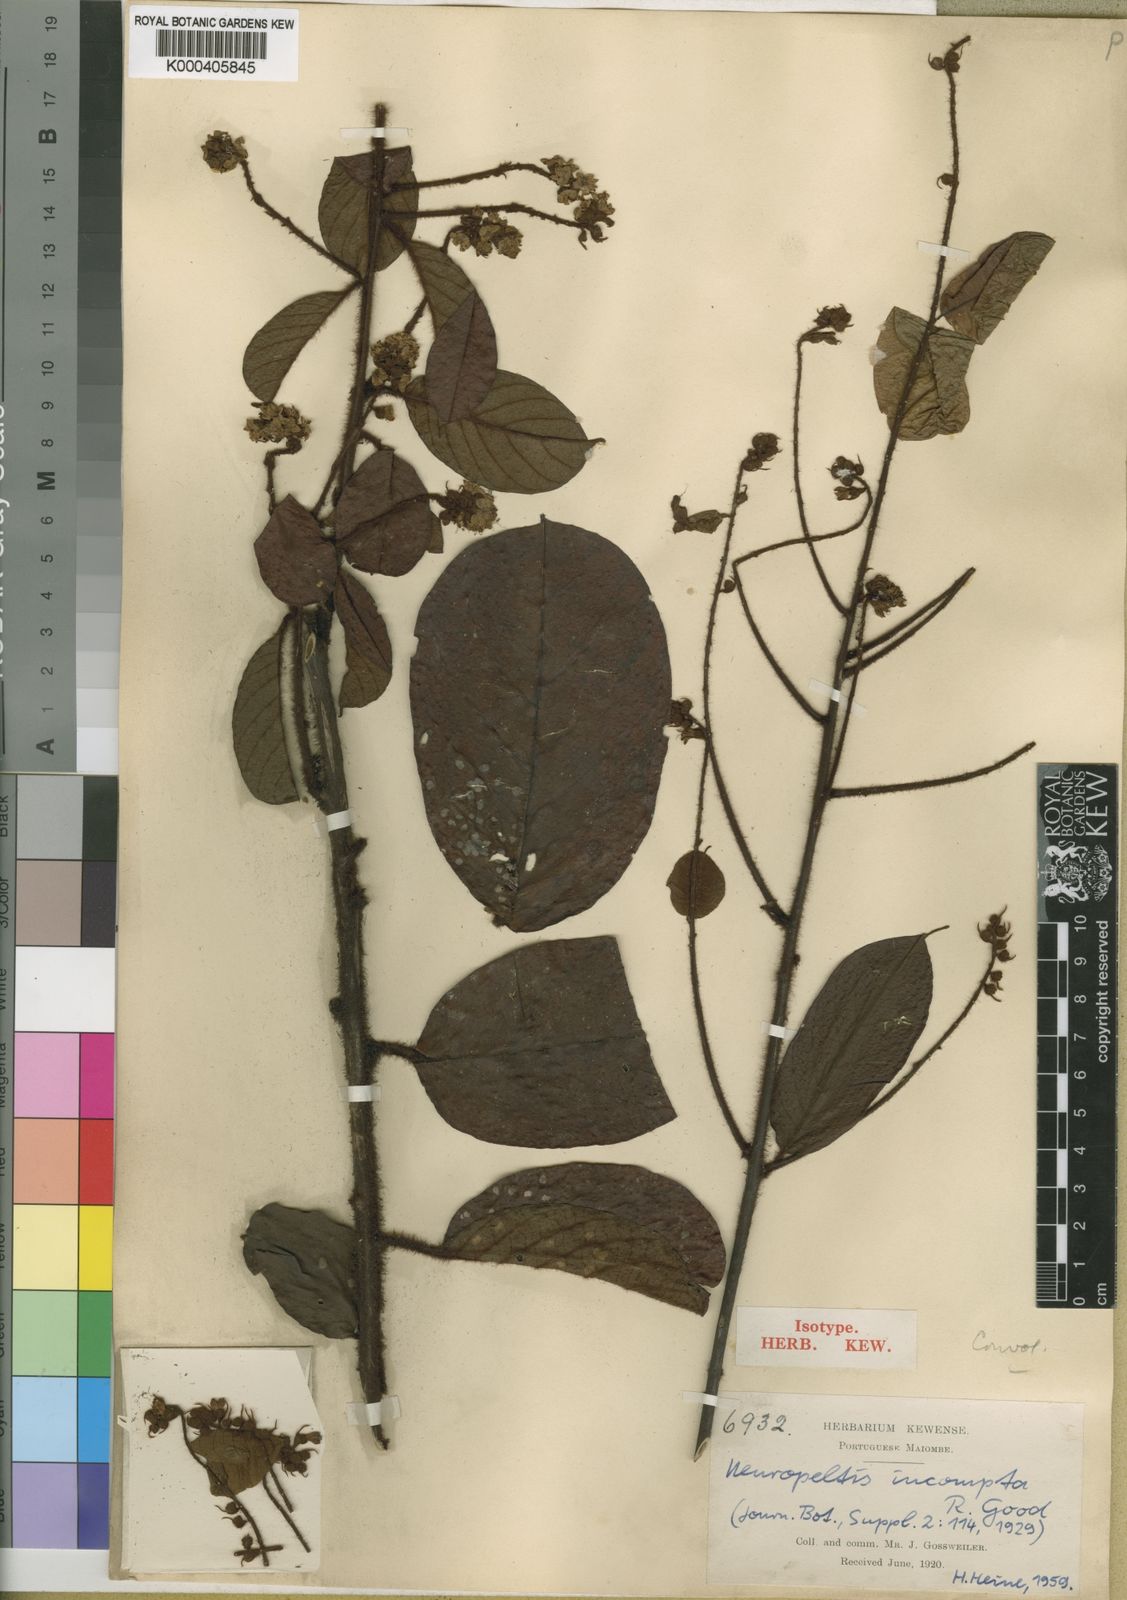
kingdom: Plantae
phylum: Tracheophyta
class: Magnoliopsida
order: Solanales
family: Convolvulaceae
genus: Neuropeltis
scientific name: Neuropeltis incompta
